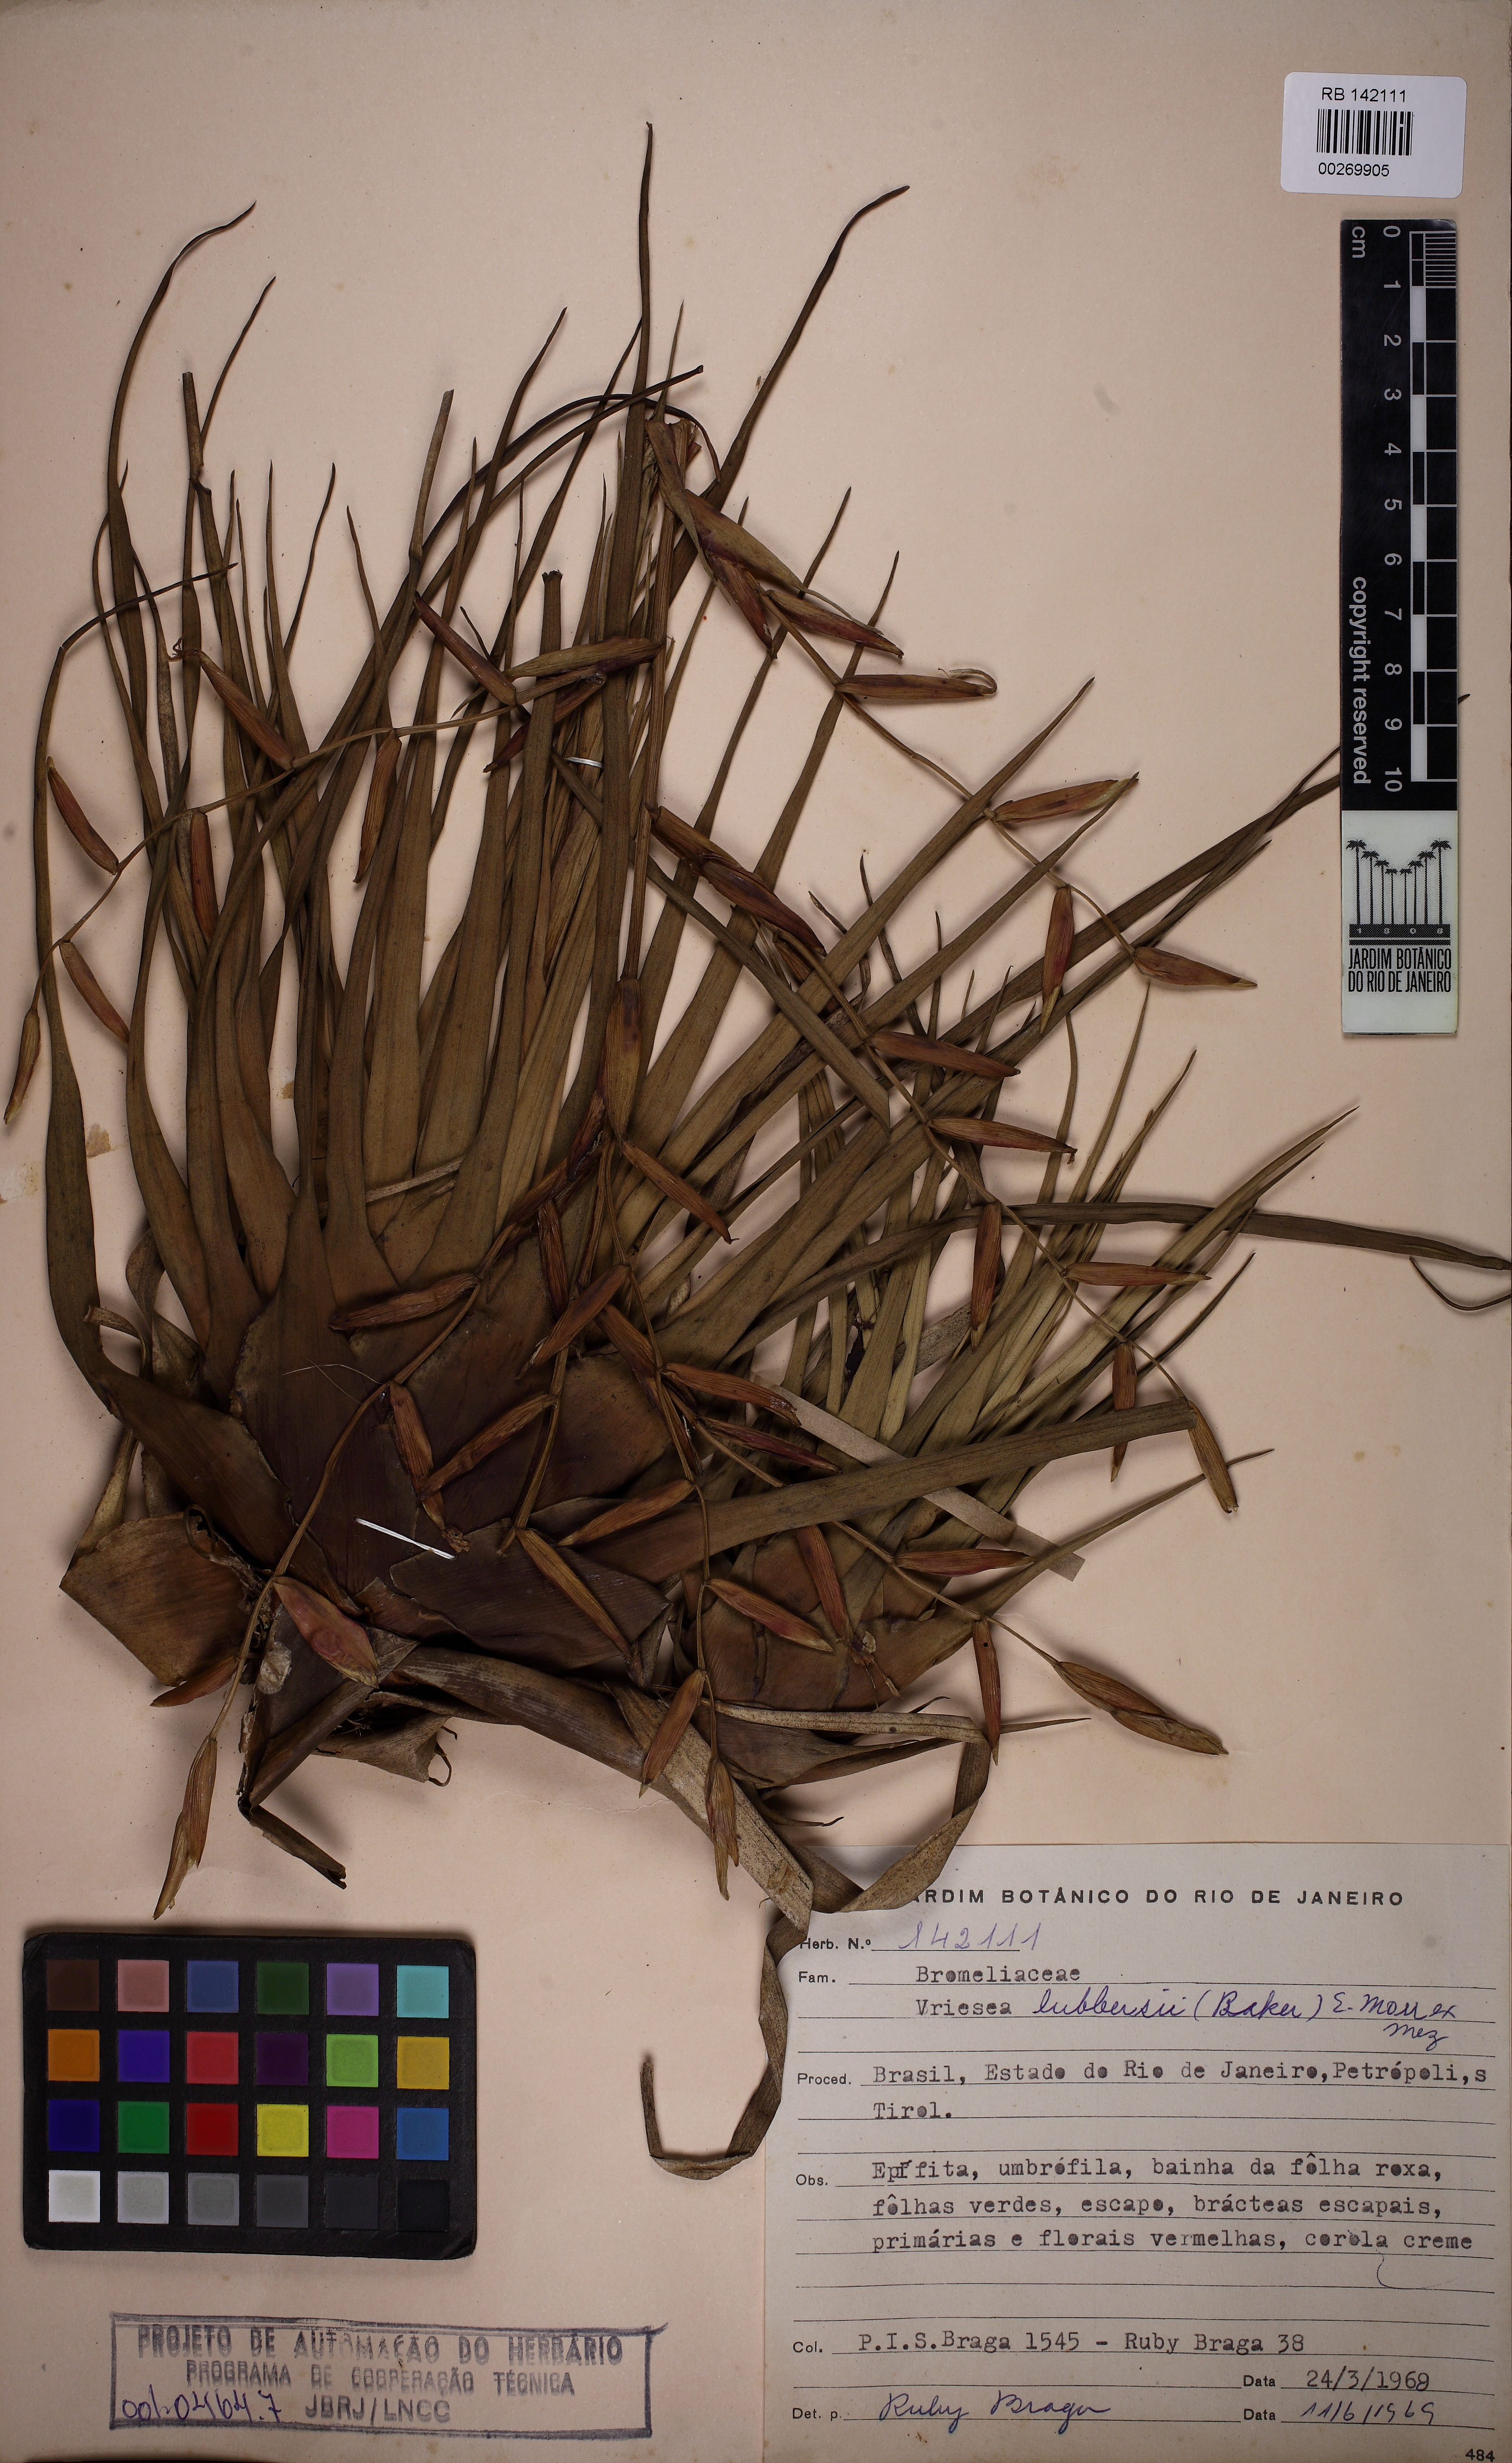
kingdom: Plantae
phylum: Tracheophyta
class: Liliopsida
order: Poales
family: Bromeliaceae
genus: Vriesea
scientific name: Vriesea lubbersii
